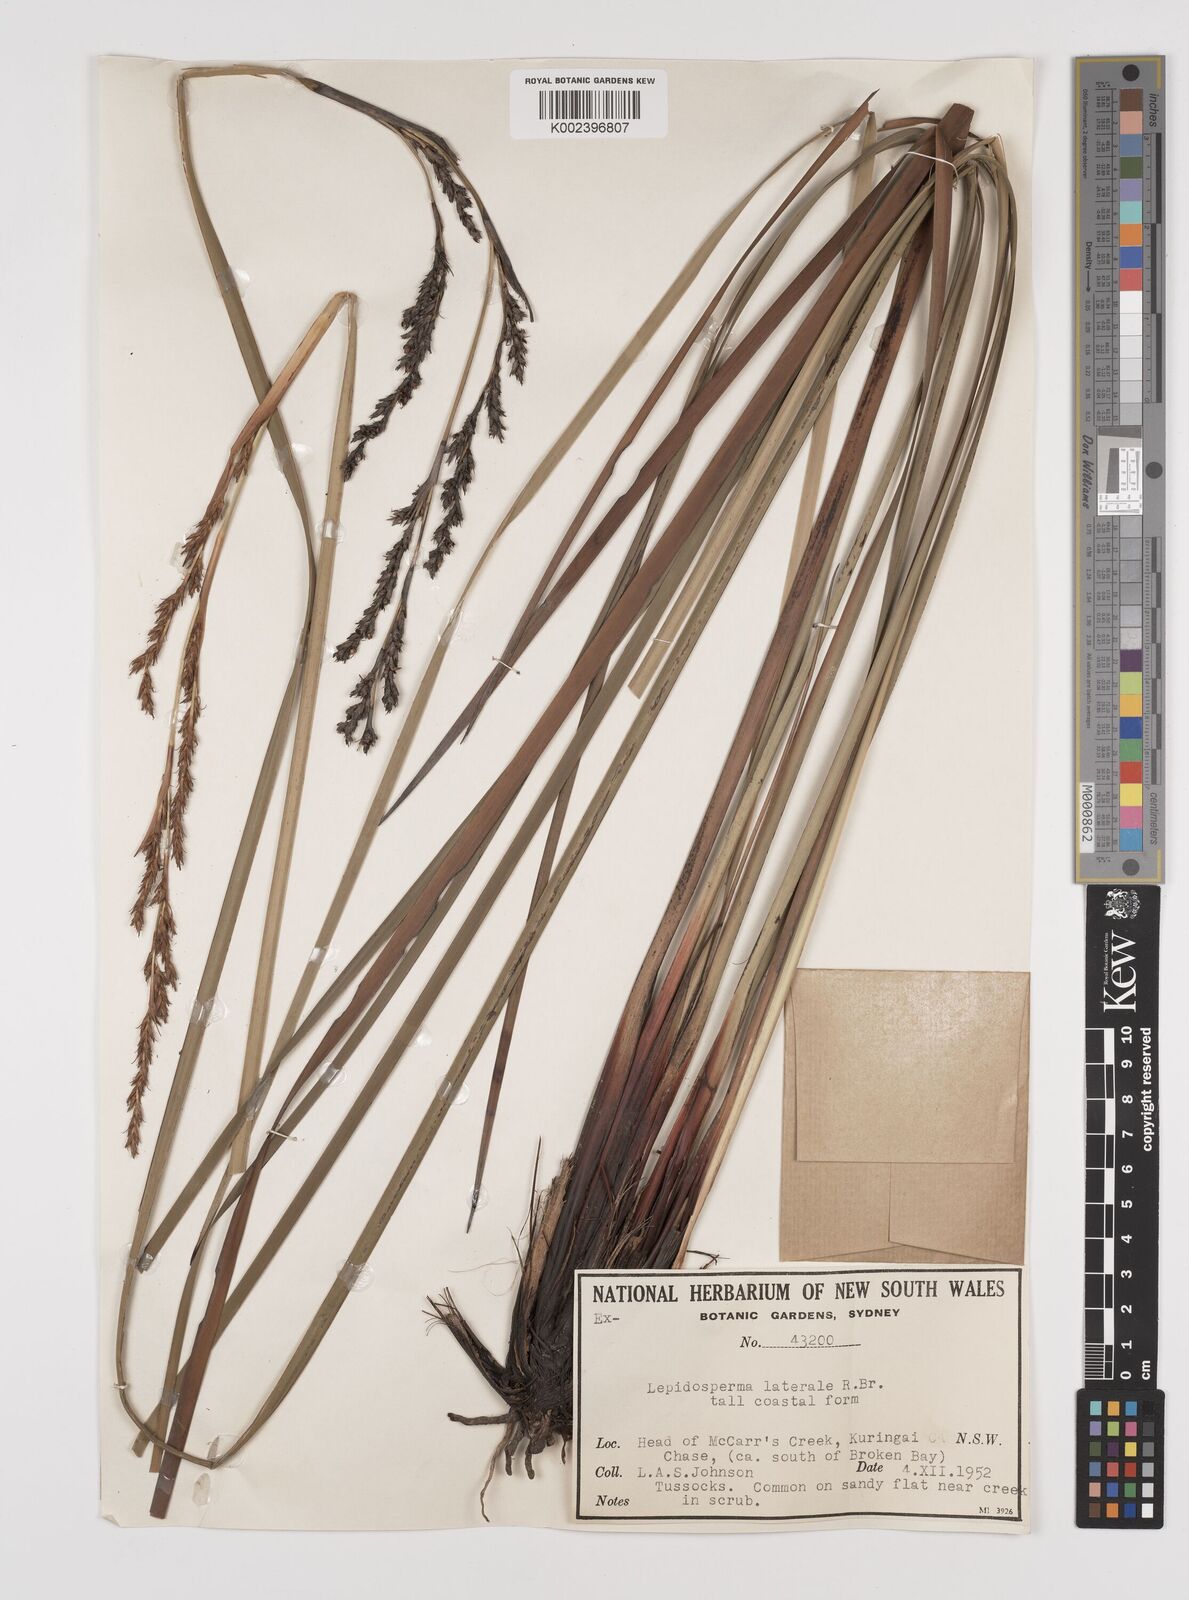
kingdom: Plantae
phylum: Tracheophyta
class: Liliopsida
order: Poales
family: Cyperaceae
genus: Lepidosperma
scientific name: Lepidosperma laterale
